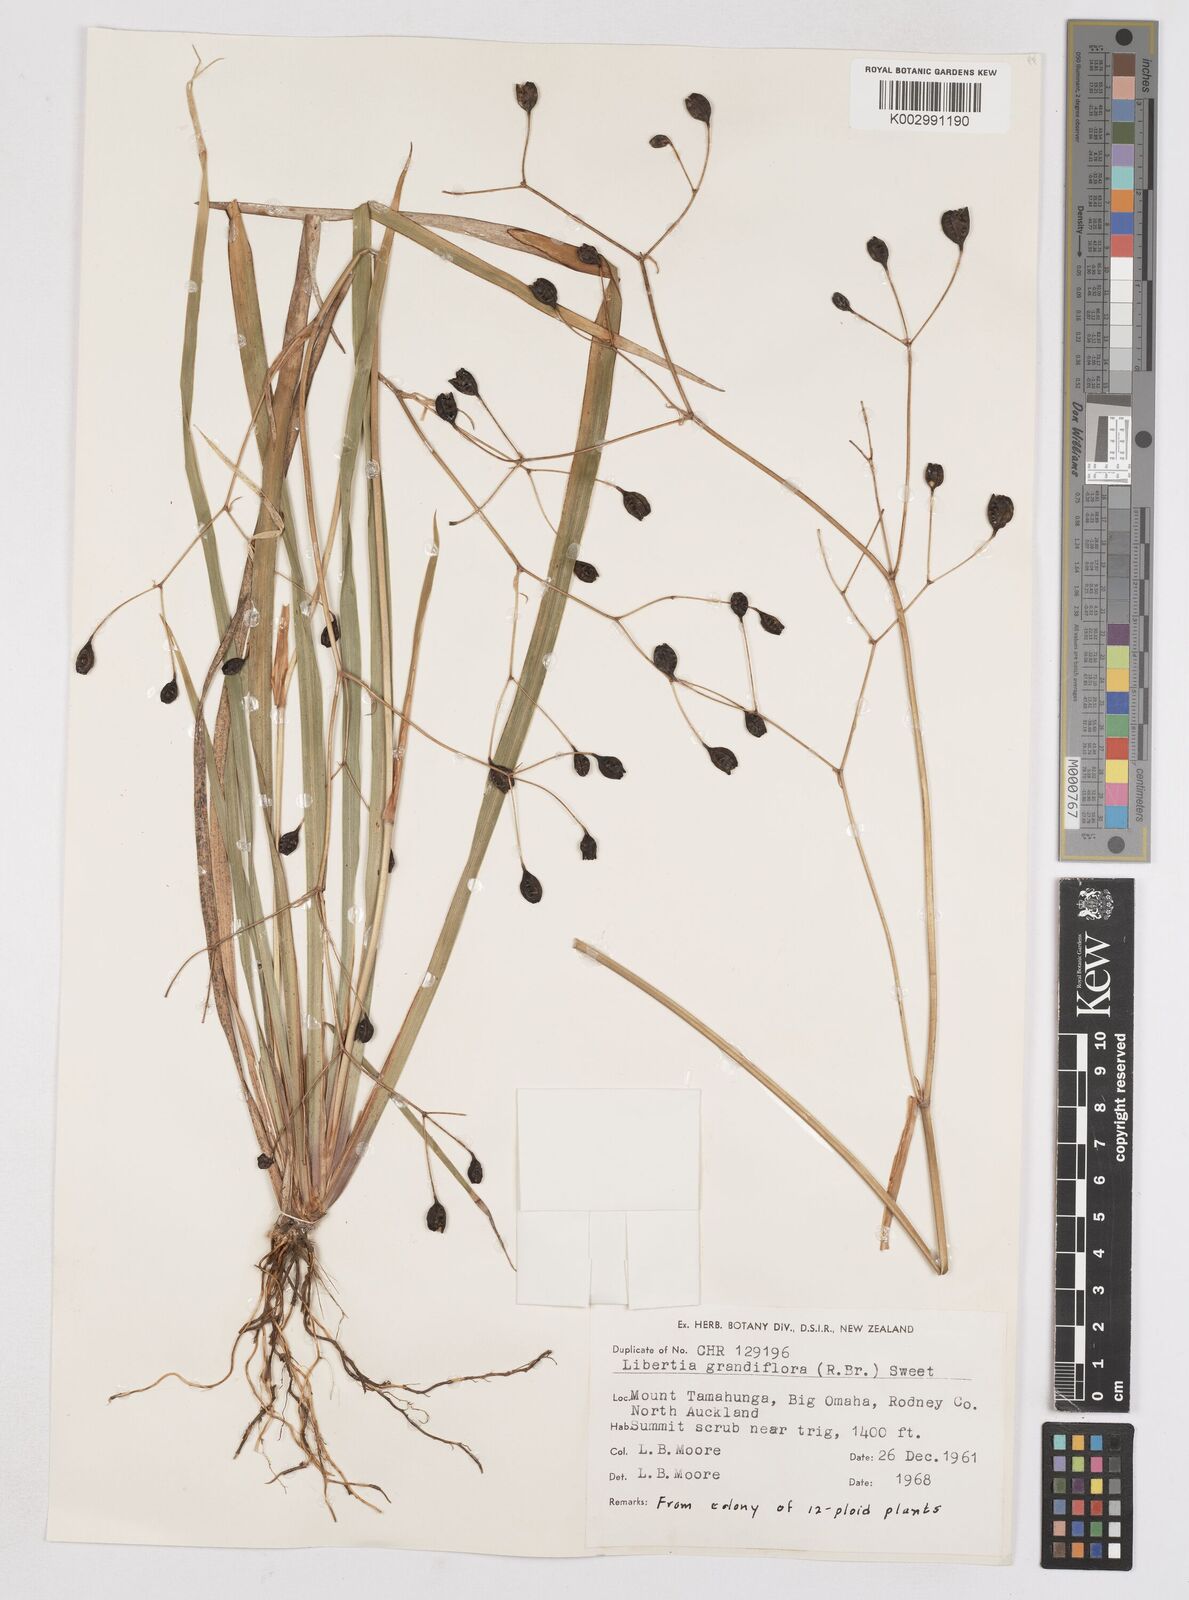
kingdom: Plantae
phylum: Tracheophyta
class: Liliopsida
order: Asparagales
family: Iridaceae
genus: Libertia
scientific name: Libertia grandiflora
